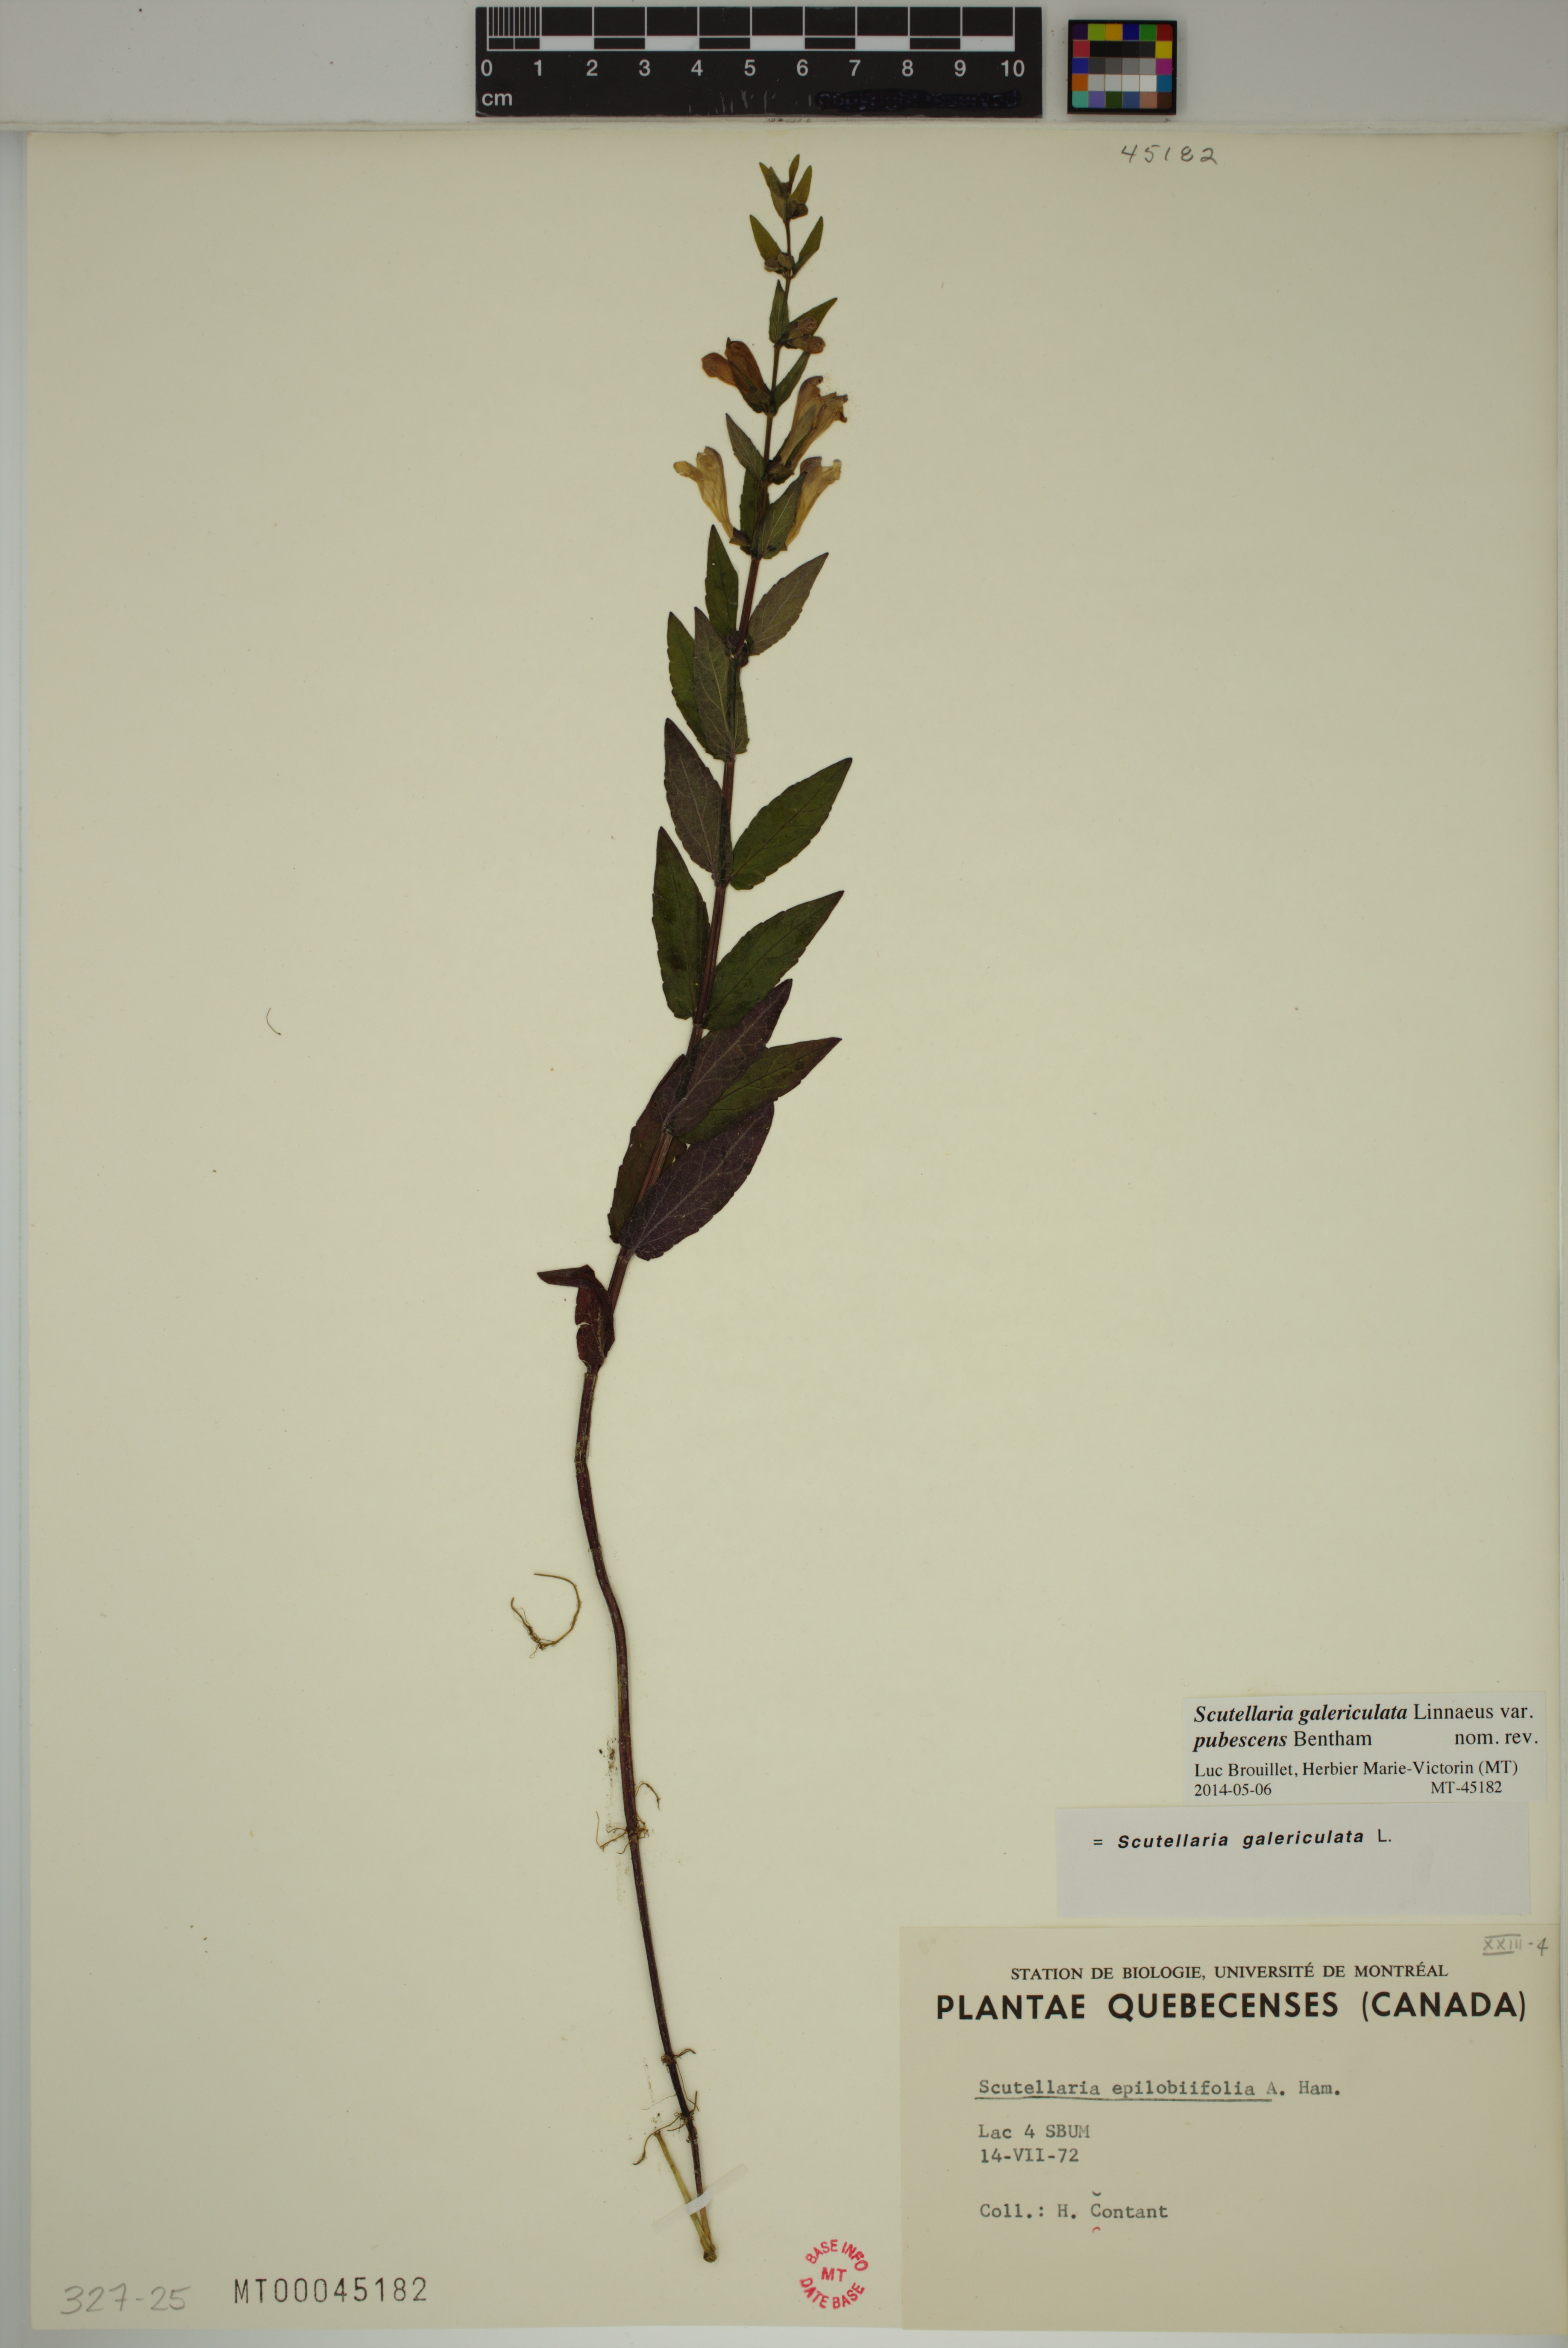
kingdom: Plantae
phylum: Tracheophyta
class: Magnoliopsida
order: Lamiales
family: Lamiaceae
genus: Scutellaria
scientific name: Scutellaria nicholsonii
